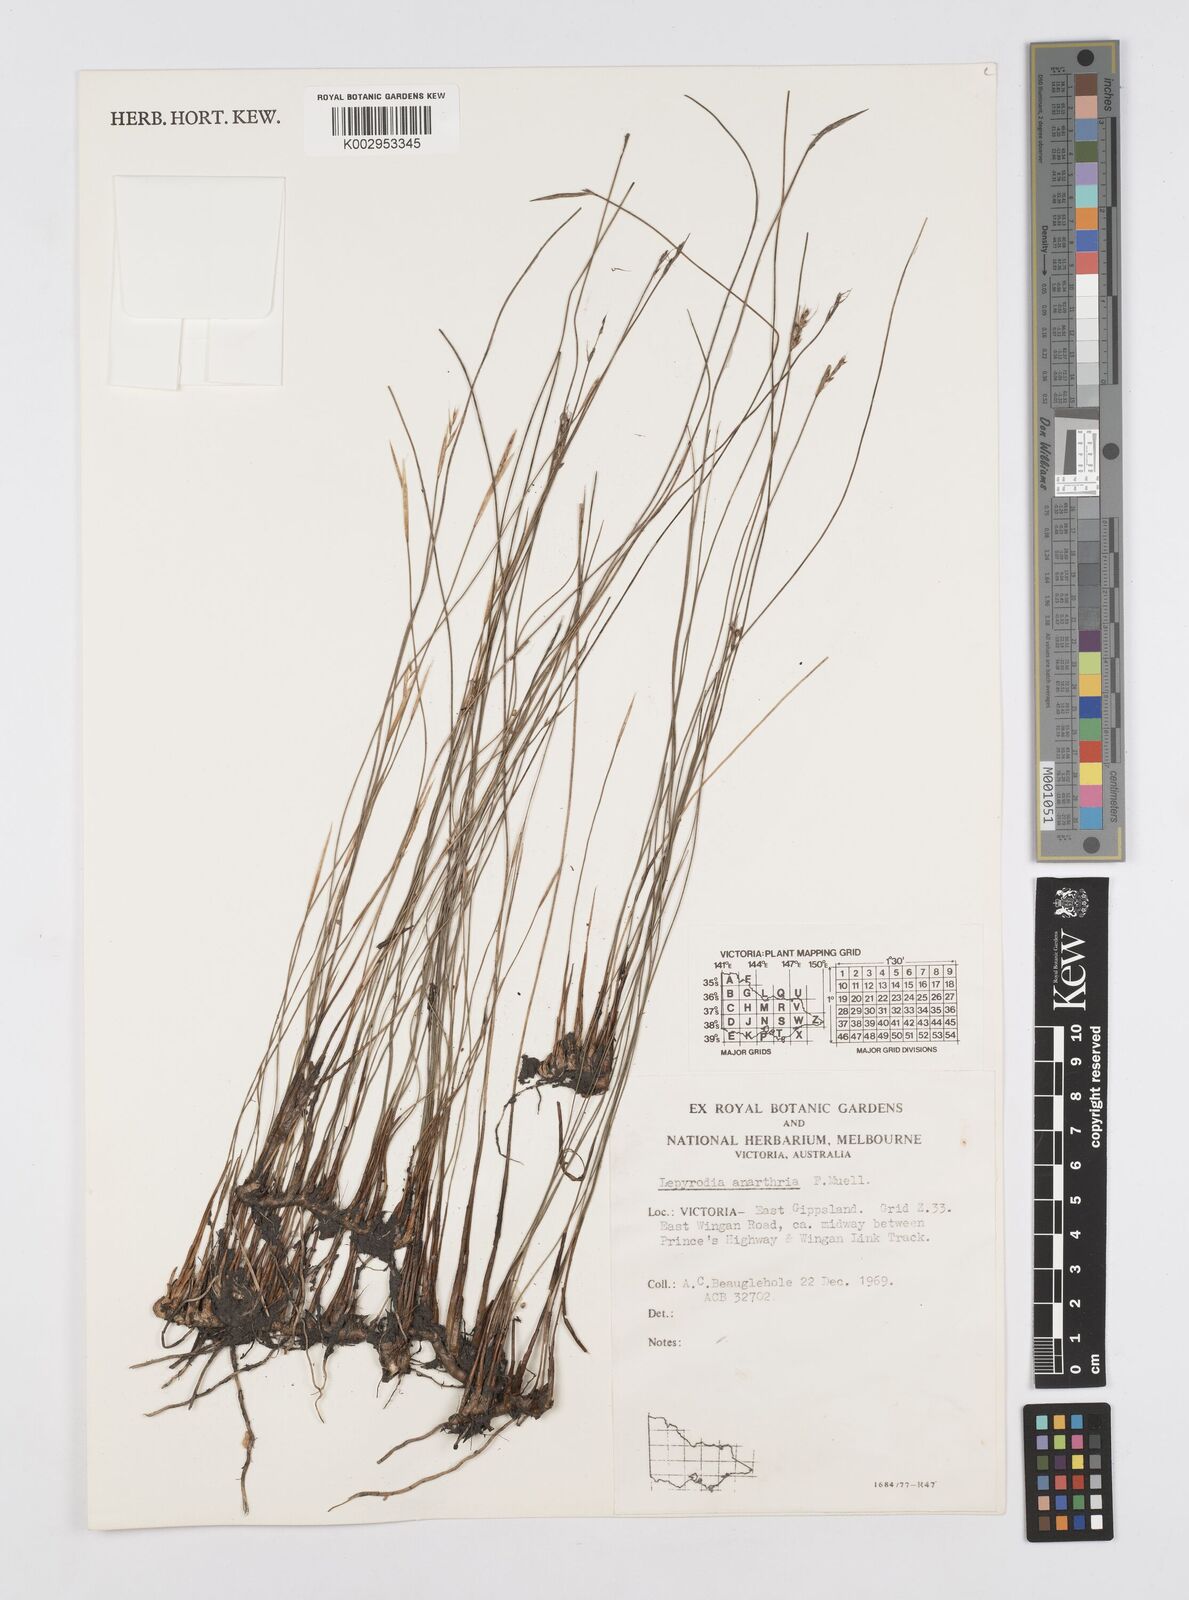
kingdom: Plantae
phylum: Tracheophyta
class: Liliopsida
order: Poales
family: Restionaceae
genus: Lepyrodia
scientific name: Lepyrodia anarthria
